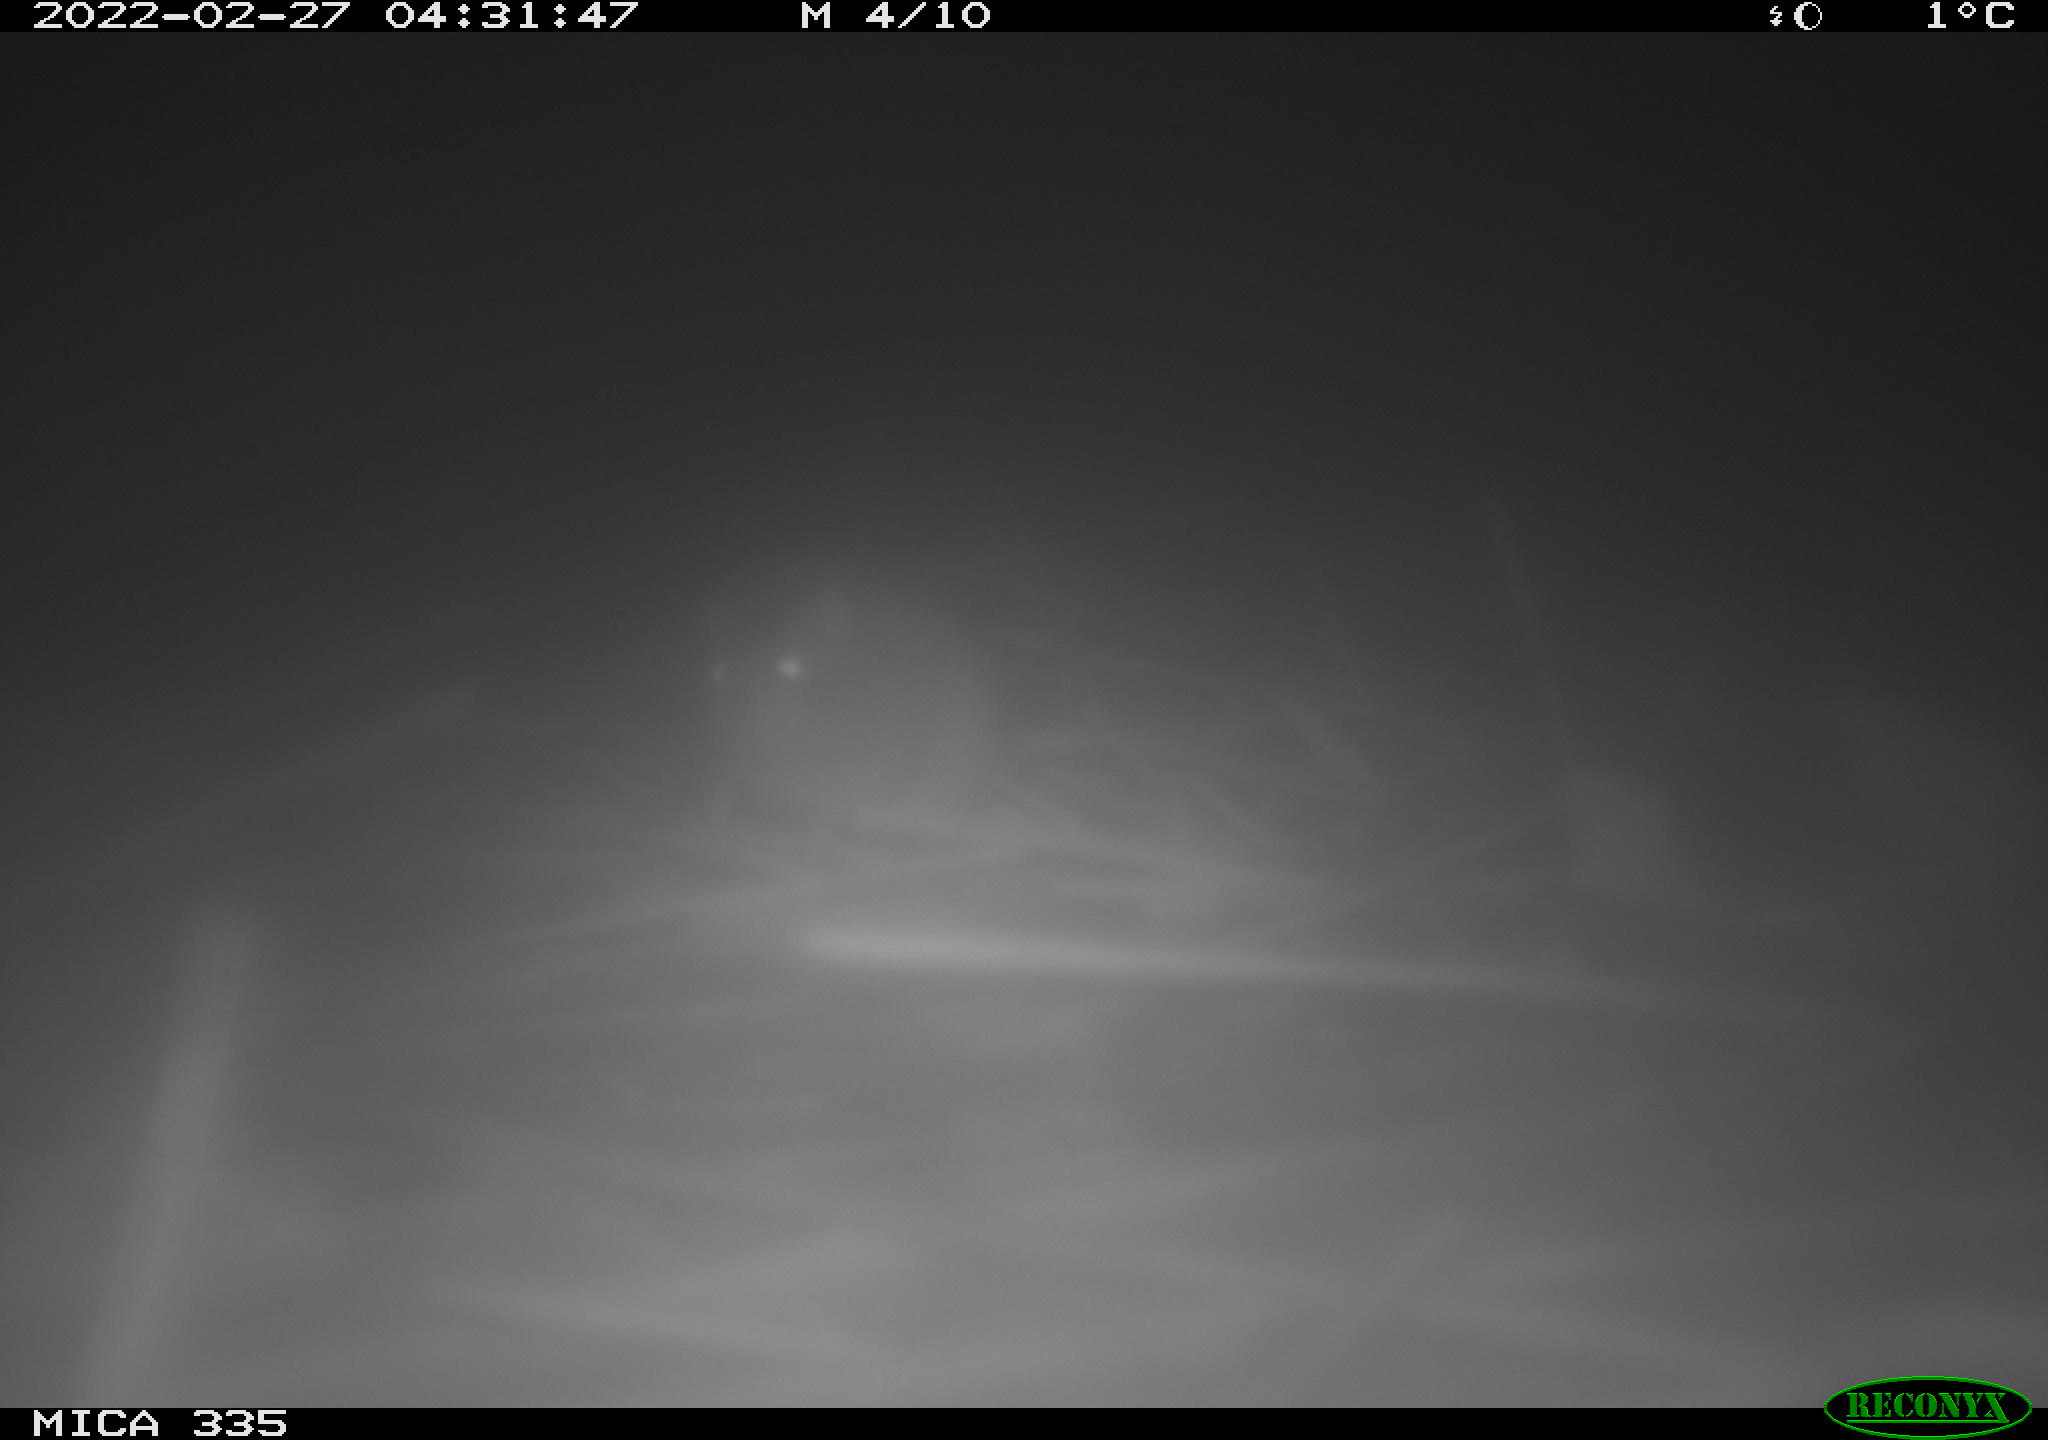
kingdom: Animalia
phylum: Chordata
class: Mammalia
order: Rodentia
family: Muridae
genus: Rattus
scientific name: Rattus norvegicus
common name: Brown rat
